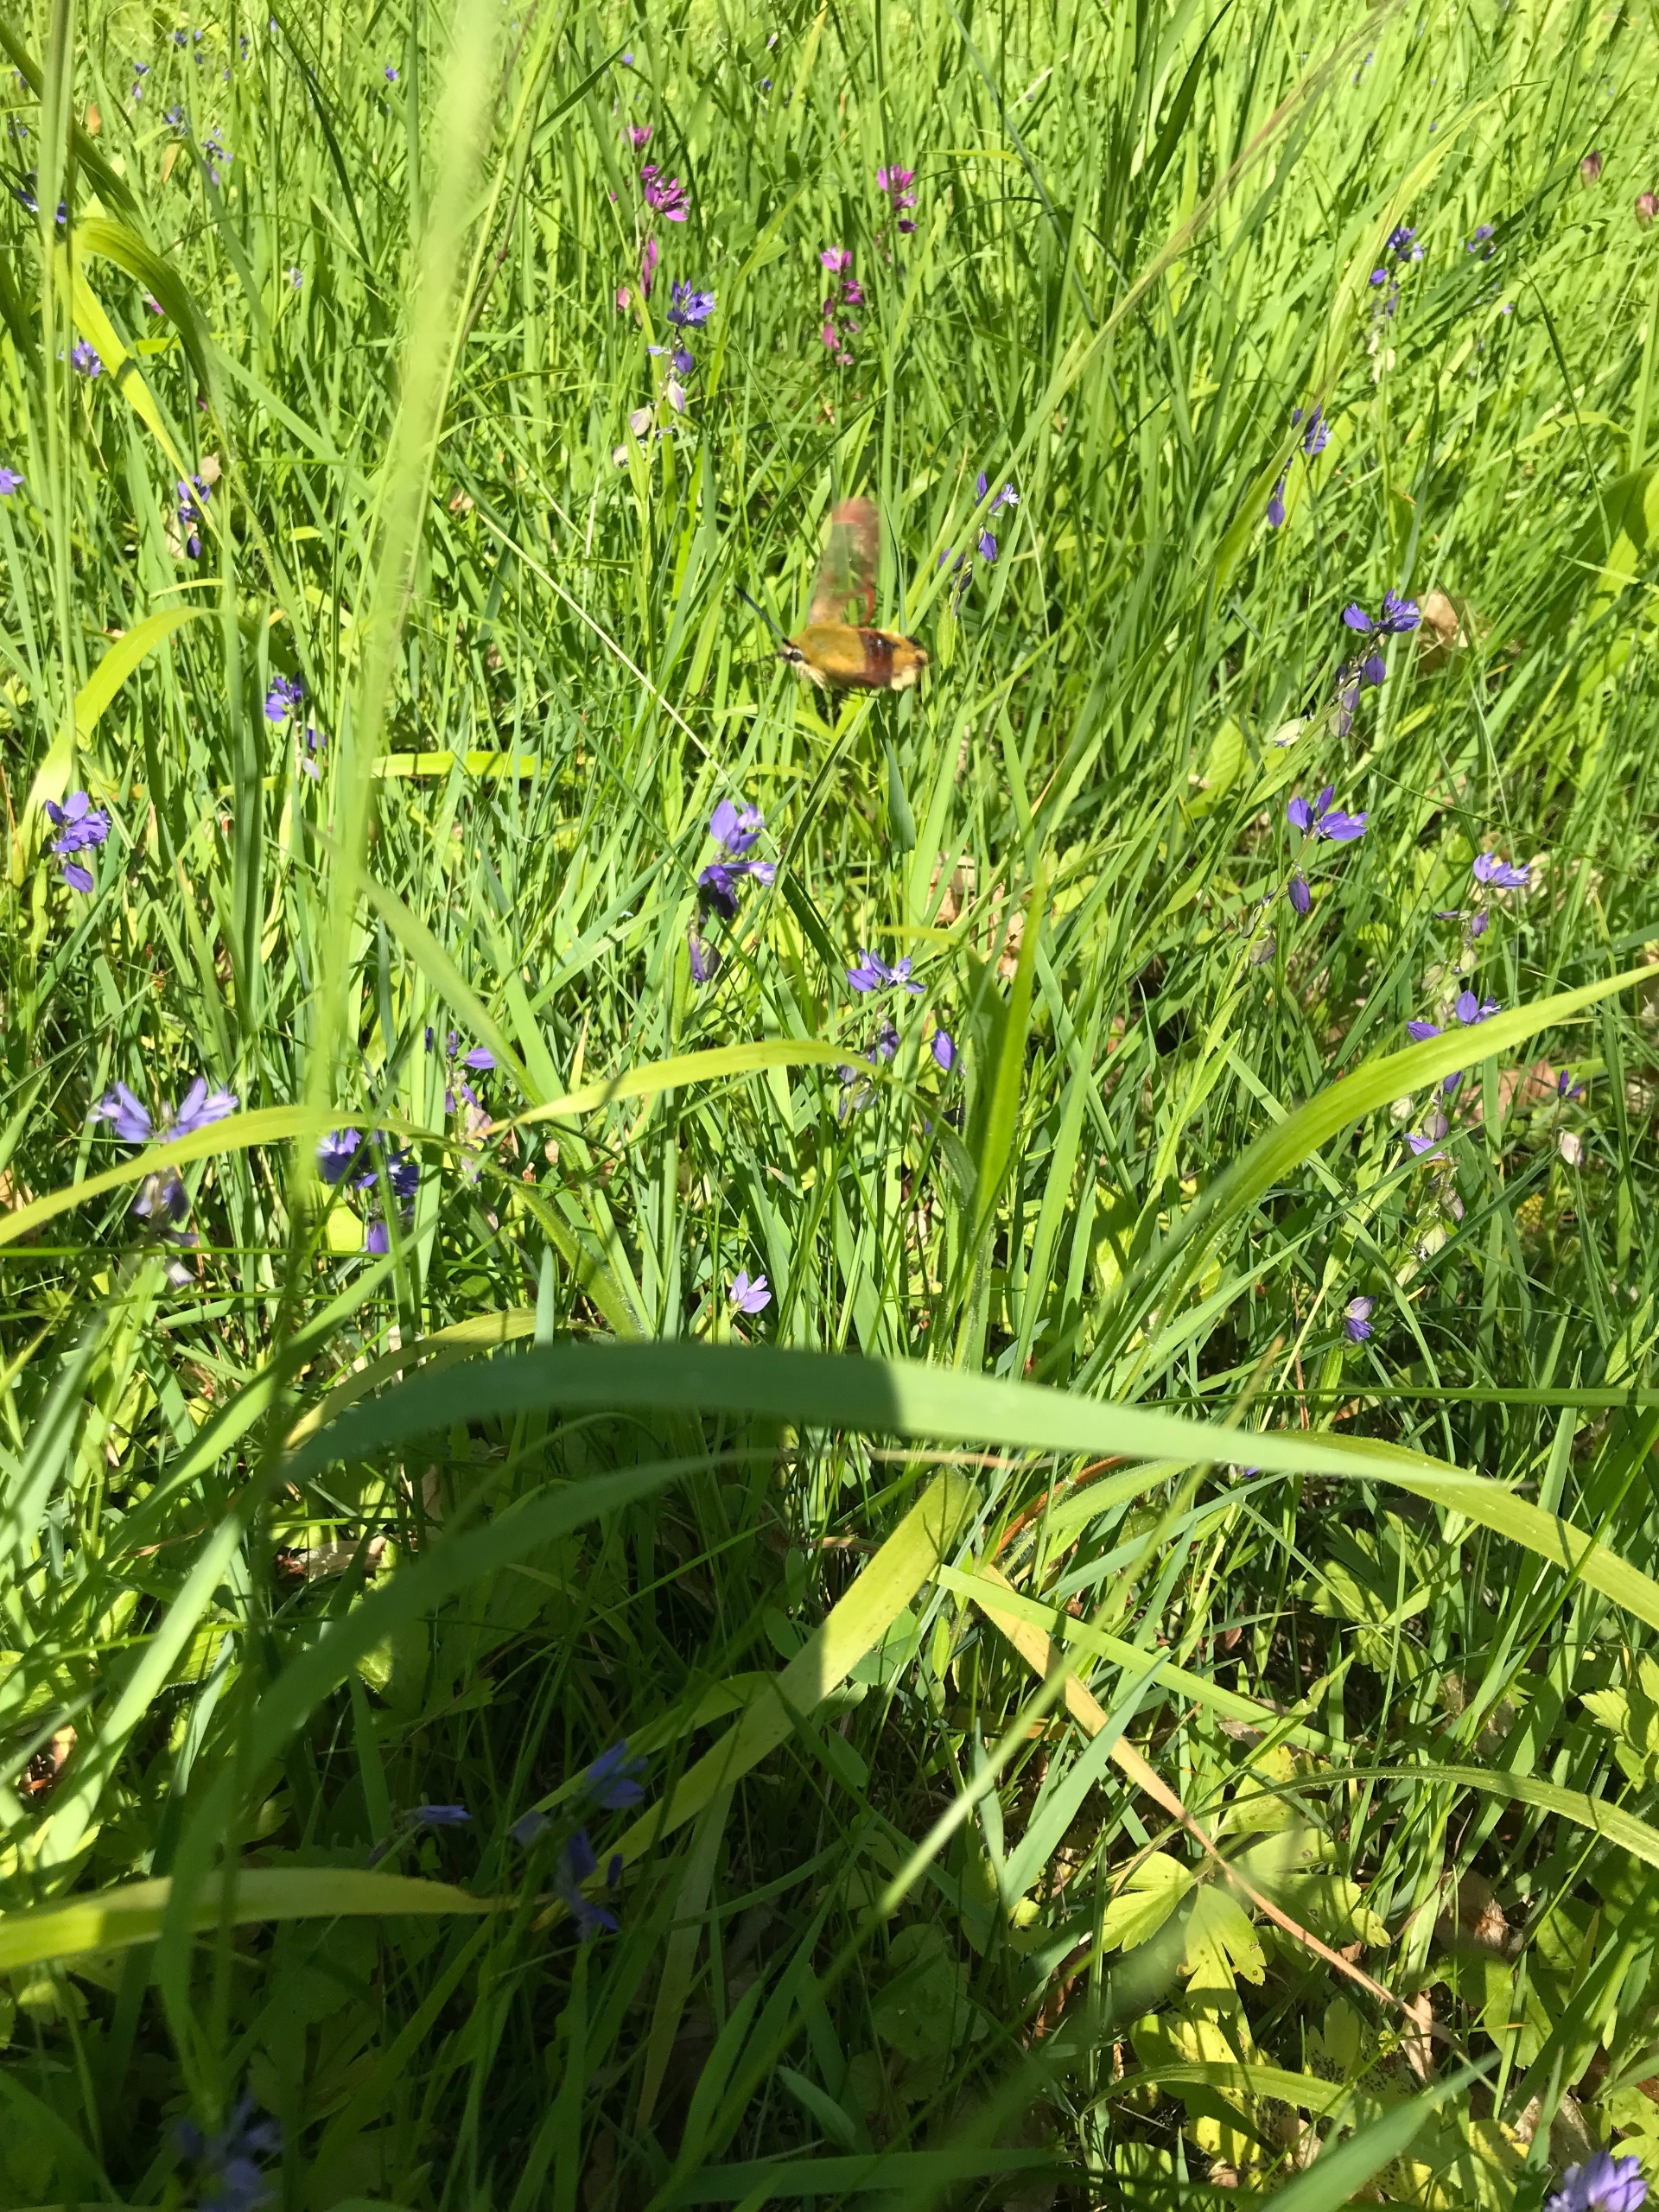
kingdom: Animalia
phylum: Arthropoda
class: Insecta
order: Lepidoptera
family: Sphingidae
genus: Hemaris
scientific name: Hemaris fuciformis
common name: Bredrandet humlebisværmer
